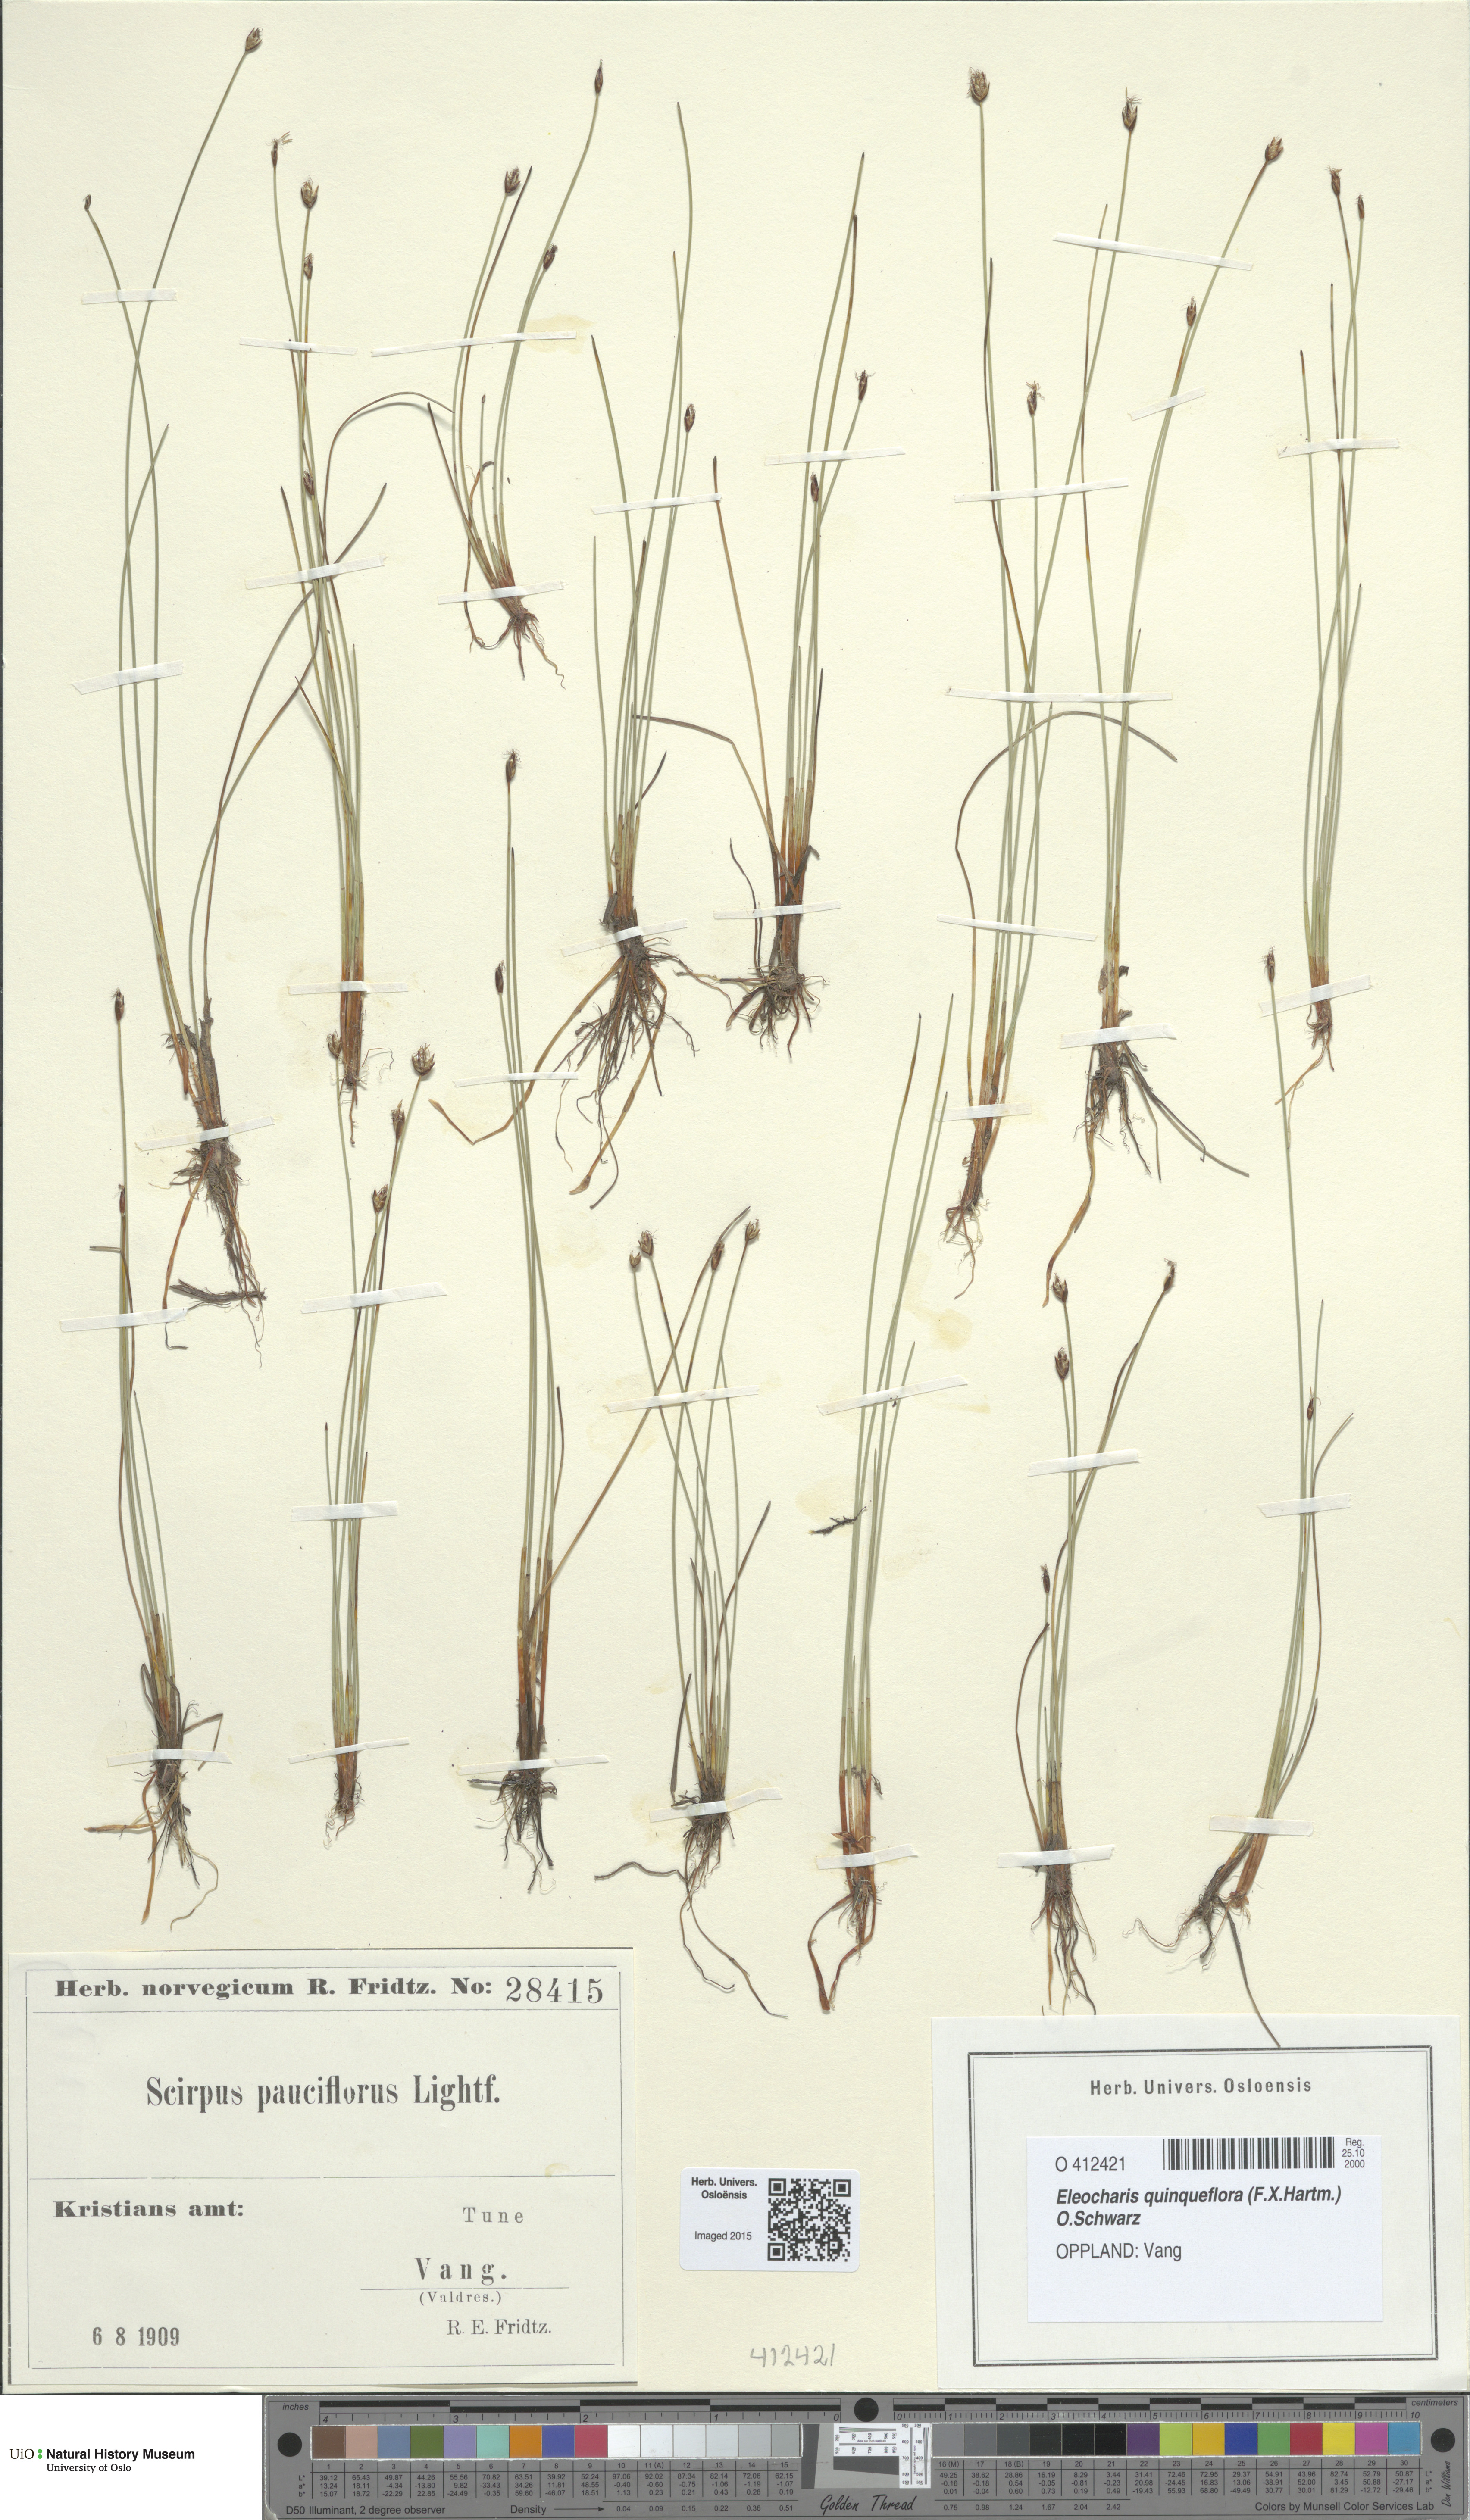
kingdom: Plantae
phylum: Tracheophyta
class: Liliopsida
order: Poales
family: Cyperaceae
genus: Eleocharis
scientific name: Eleocharis quinqueflora
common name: Few-flowered spike-rush
